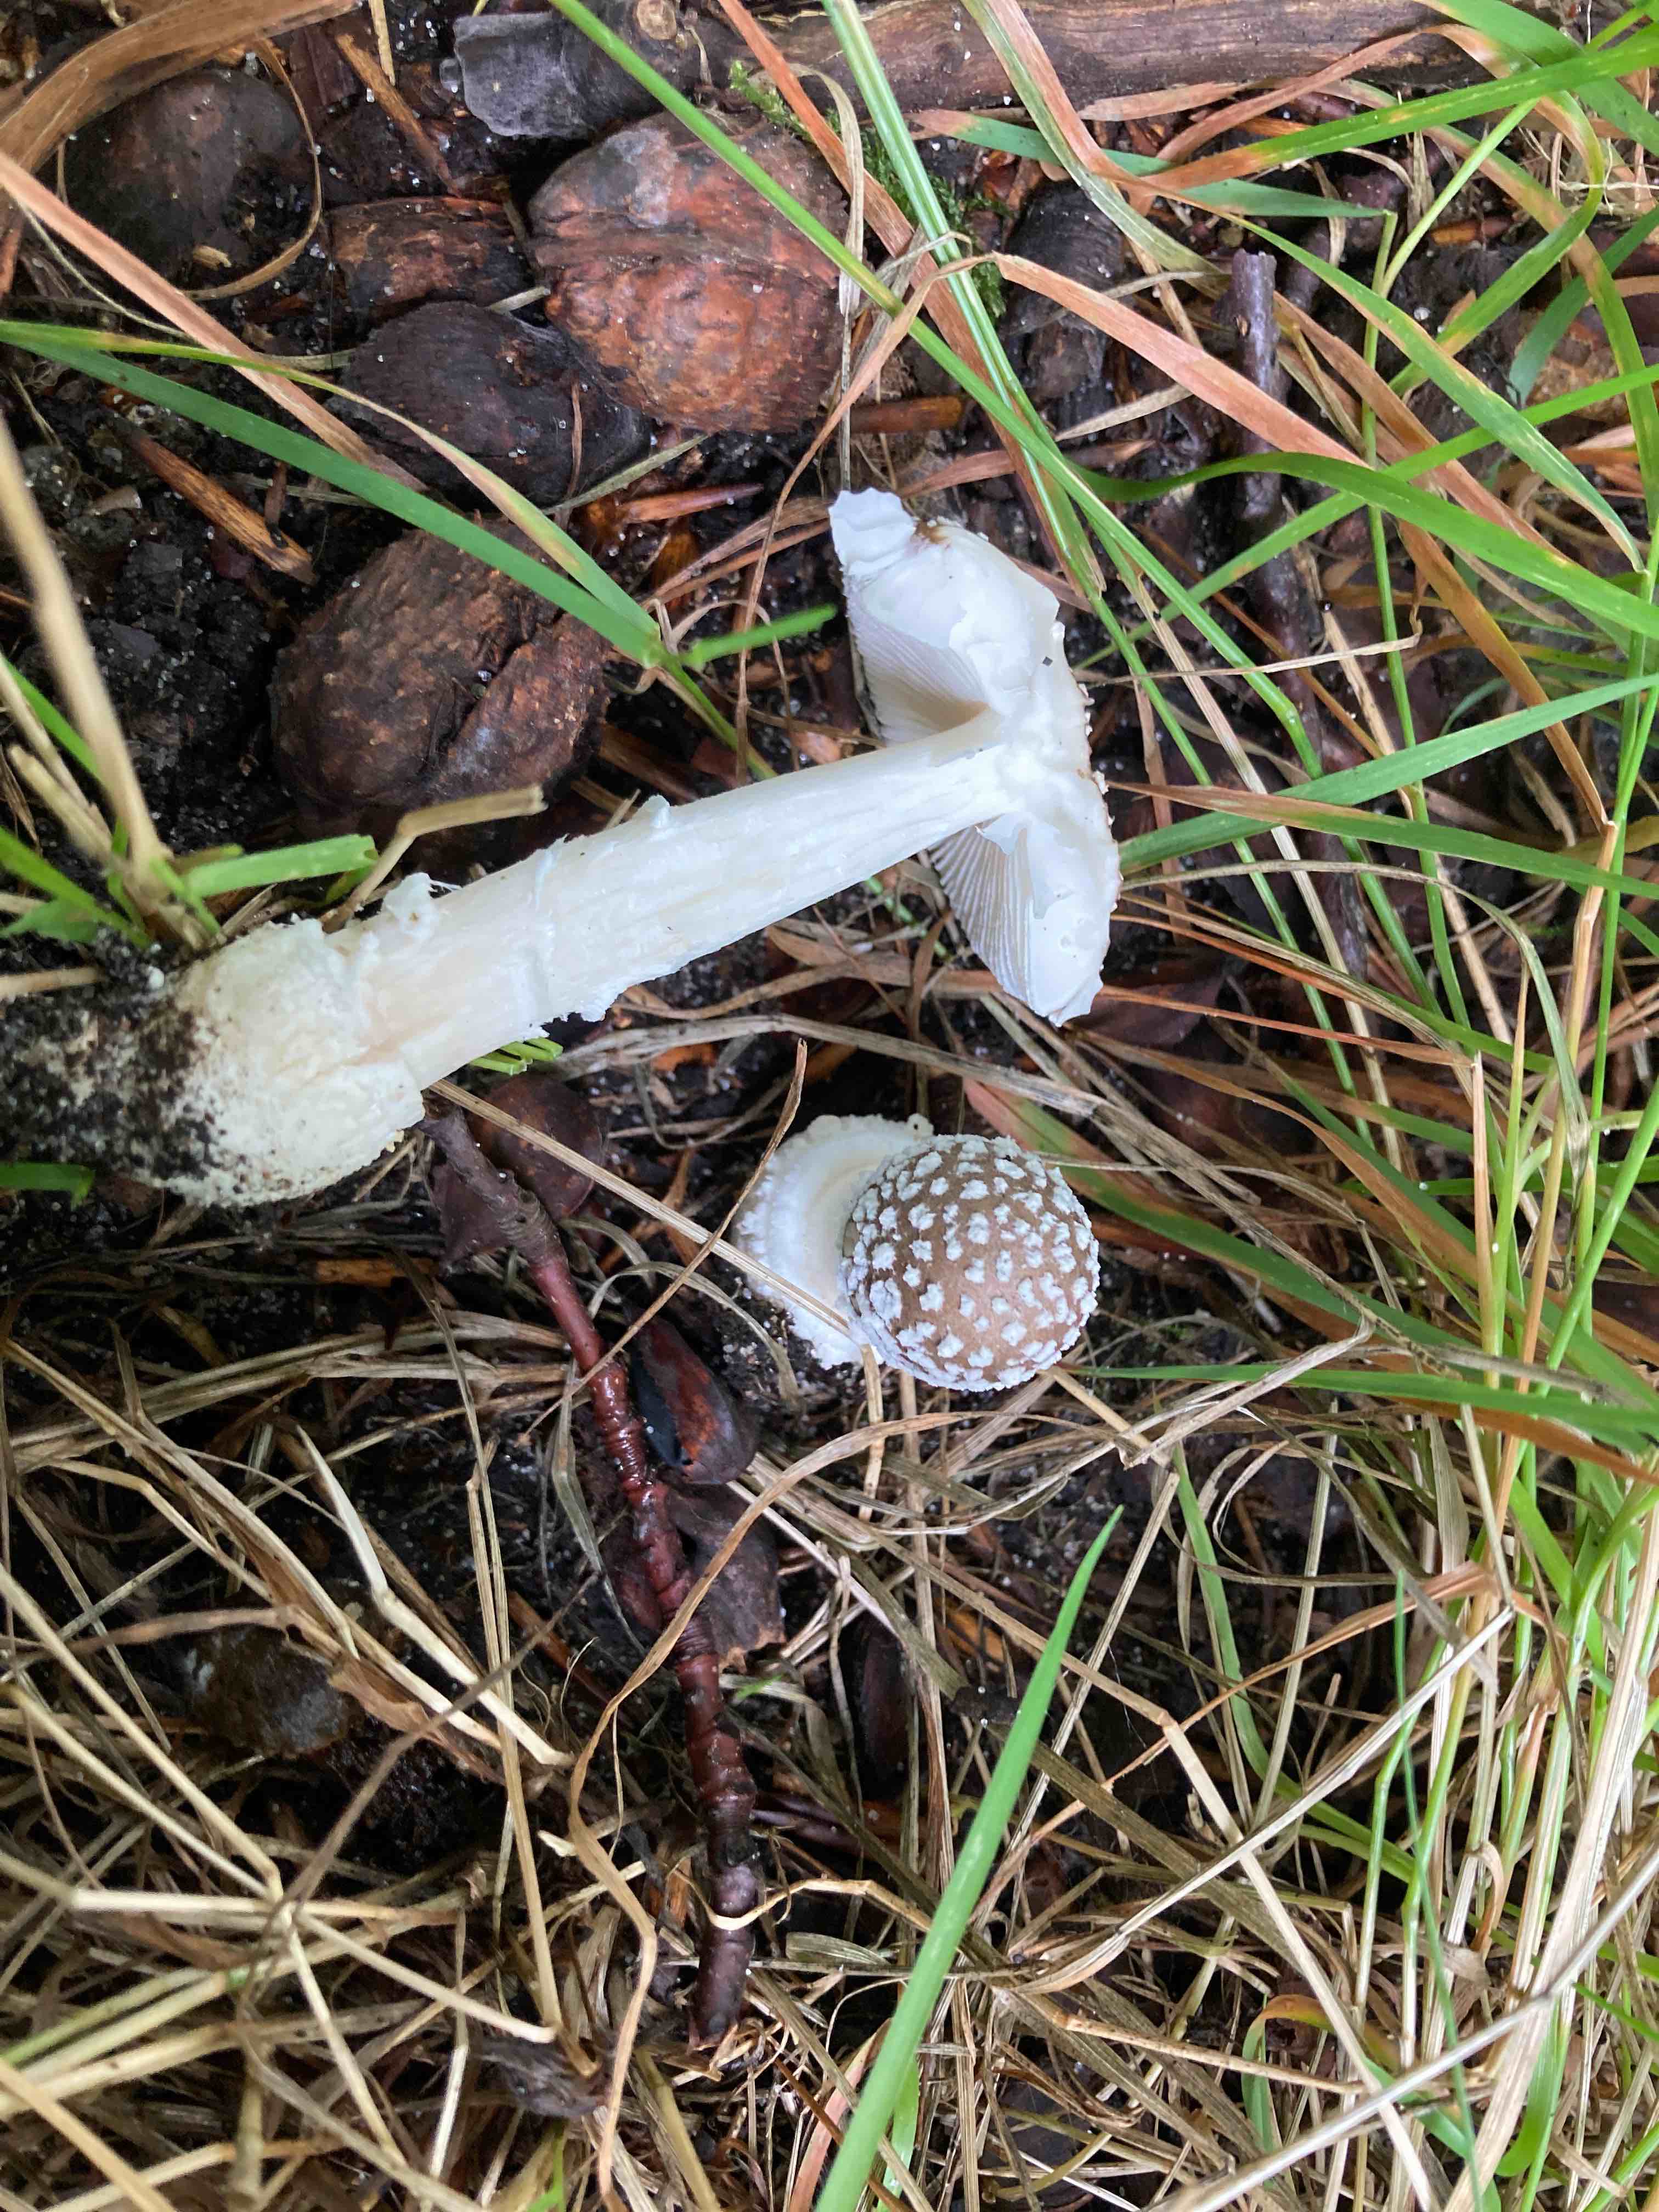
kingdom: Fungi
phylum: Basidiomycota
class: Agaricomycetes
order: Agaricales
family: Amanitaceae
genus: Amanita
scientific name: Amanita pantherina
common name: panter-fluesvamp
